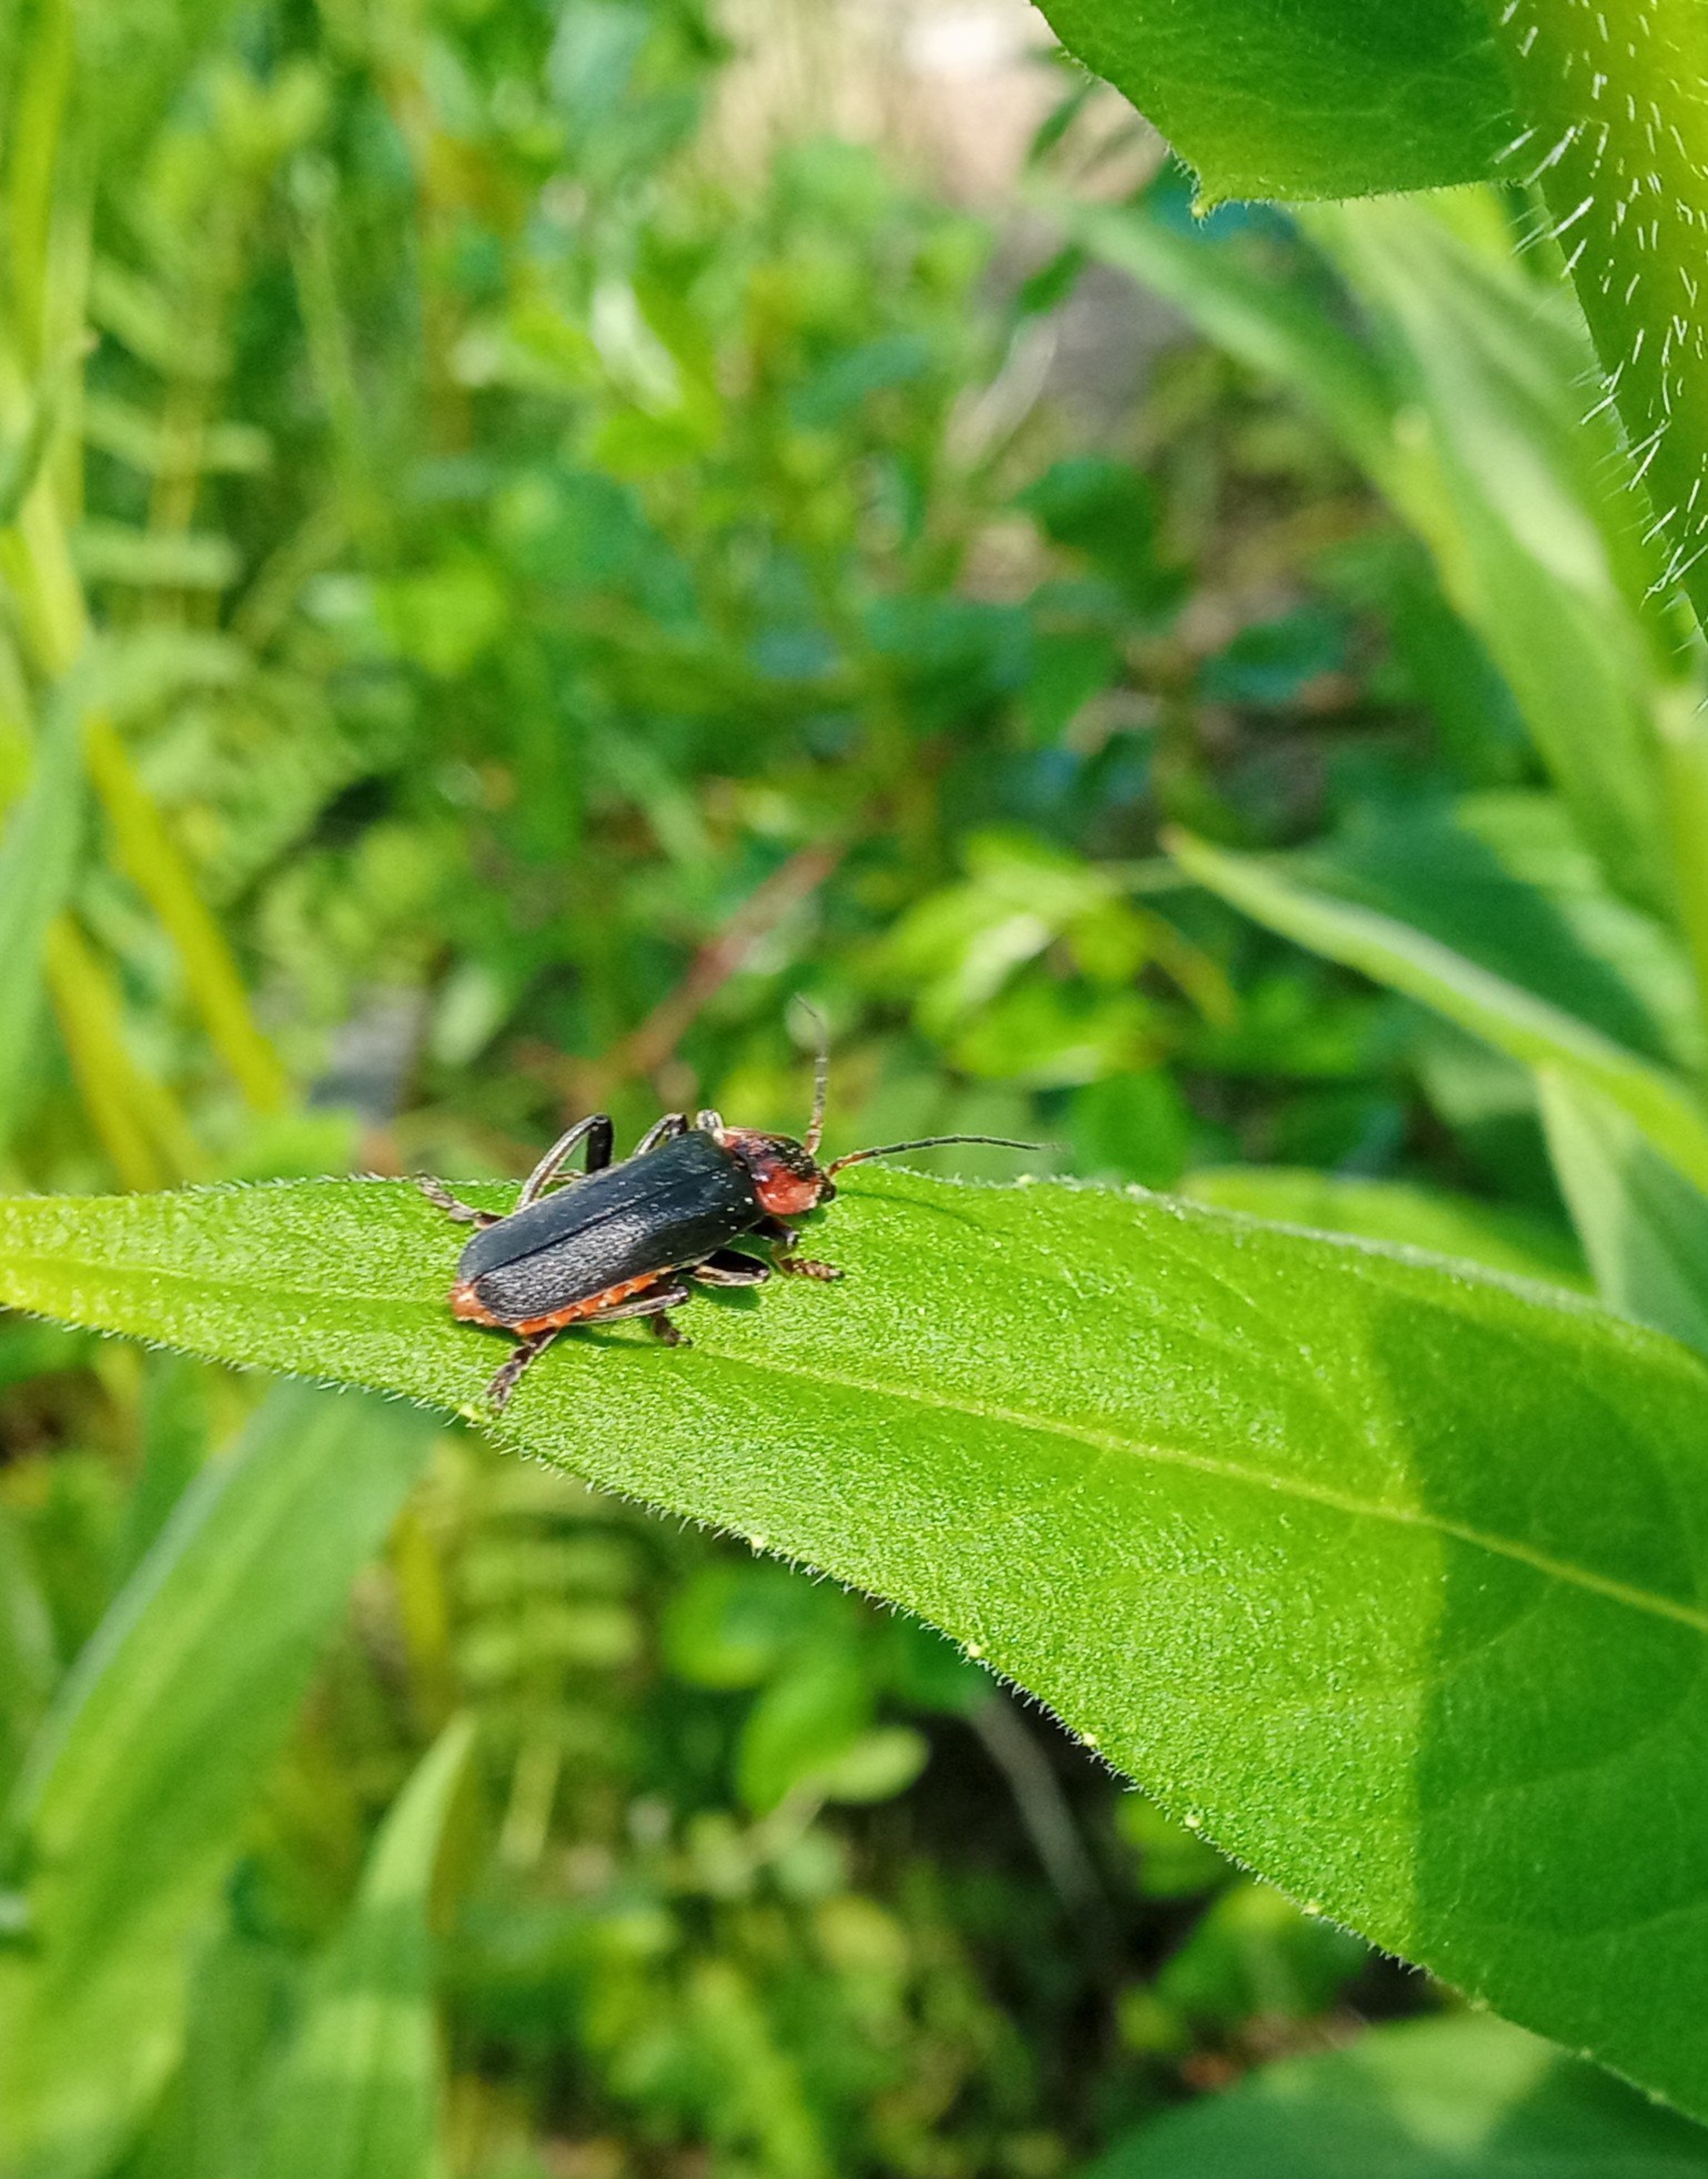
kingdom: Animalia
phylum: Arthropoda
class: Insecta
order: Coleoptera
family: Cantharidae
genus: Cantharis
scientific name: Cantharis fusca
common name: Stor blødvinge
